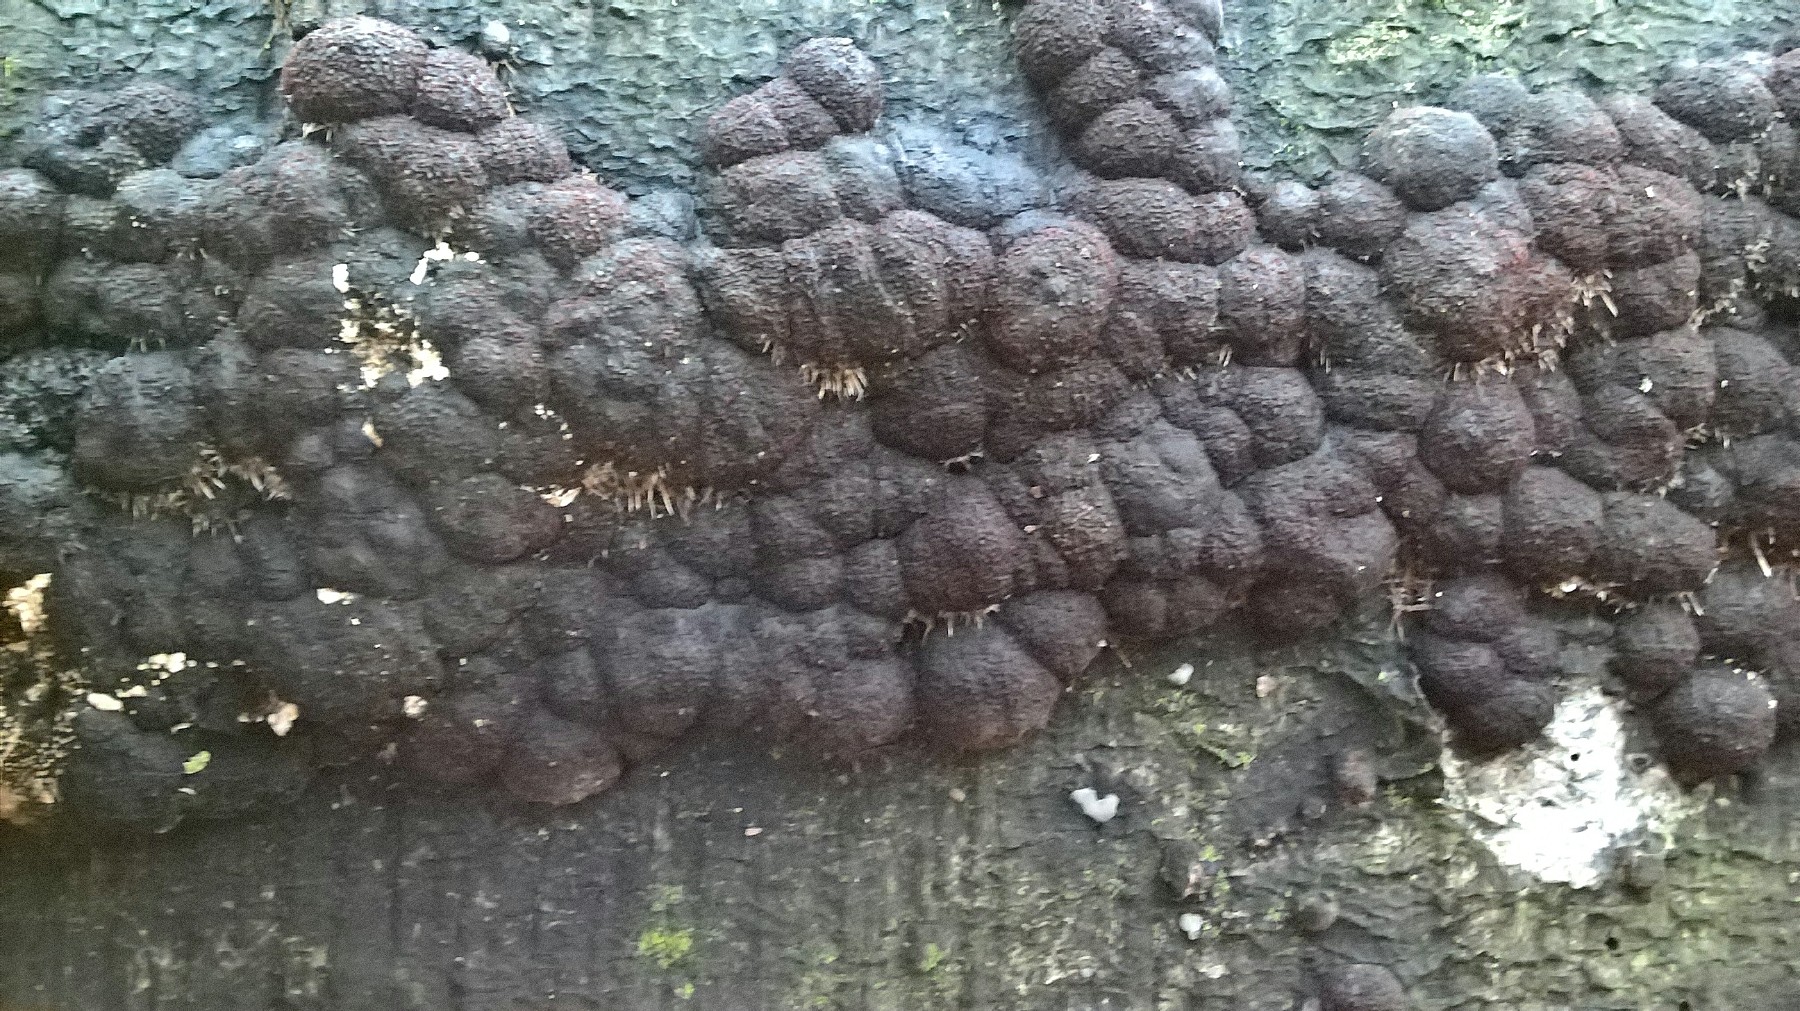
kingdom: Fungi
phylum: Ascomycota
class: Sordariomycetes
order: Xylariales
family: Hypoxylaceae
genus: Jackrogersella
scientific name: Jackrogersella cohaerens
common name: sammenflydende kulbær
